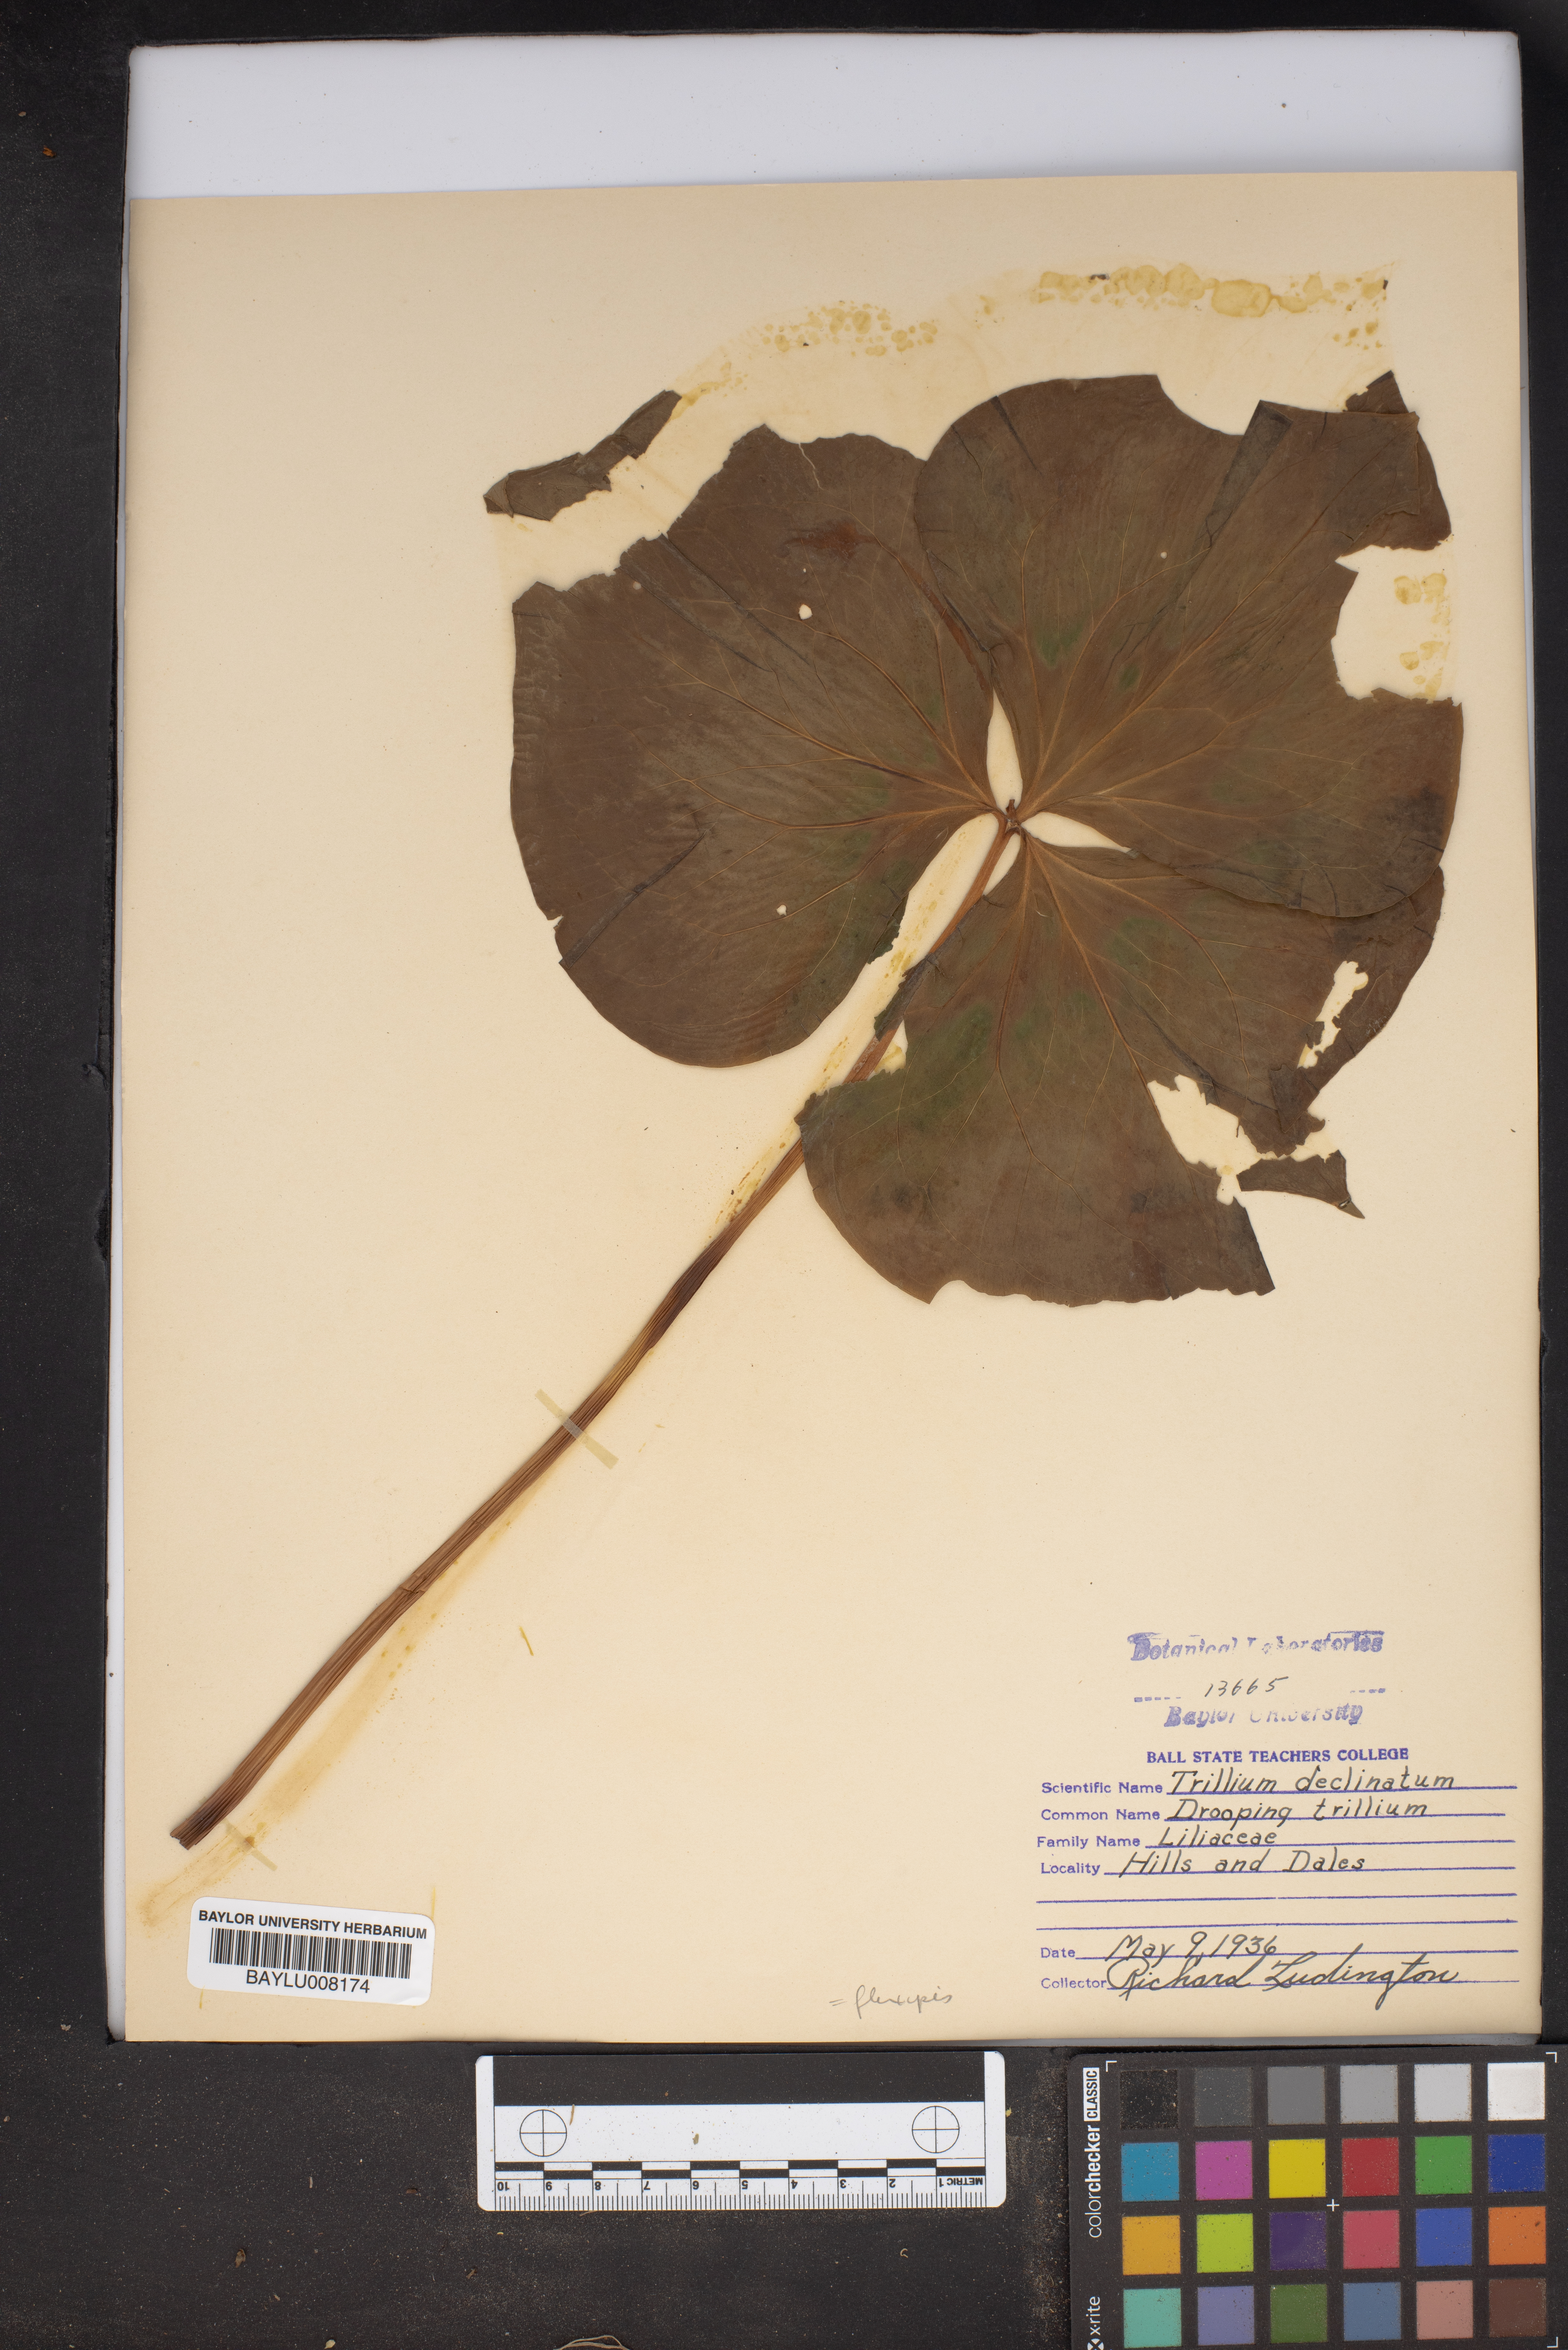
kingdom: Plantae
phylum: Tracheophyta
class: Liliopsida
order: Liliales
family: Melanthiaceae
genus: Trillium
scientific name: Trillium
